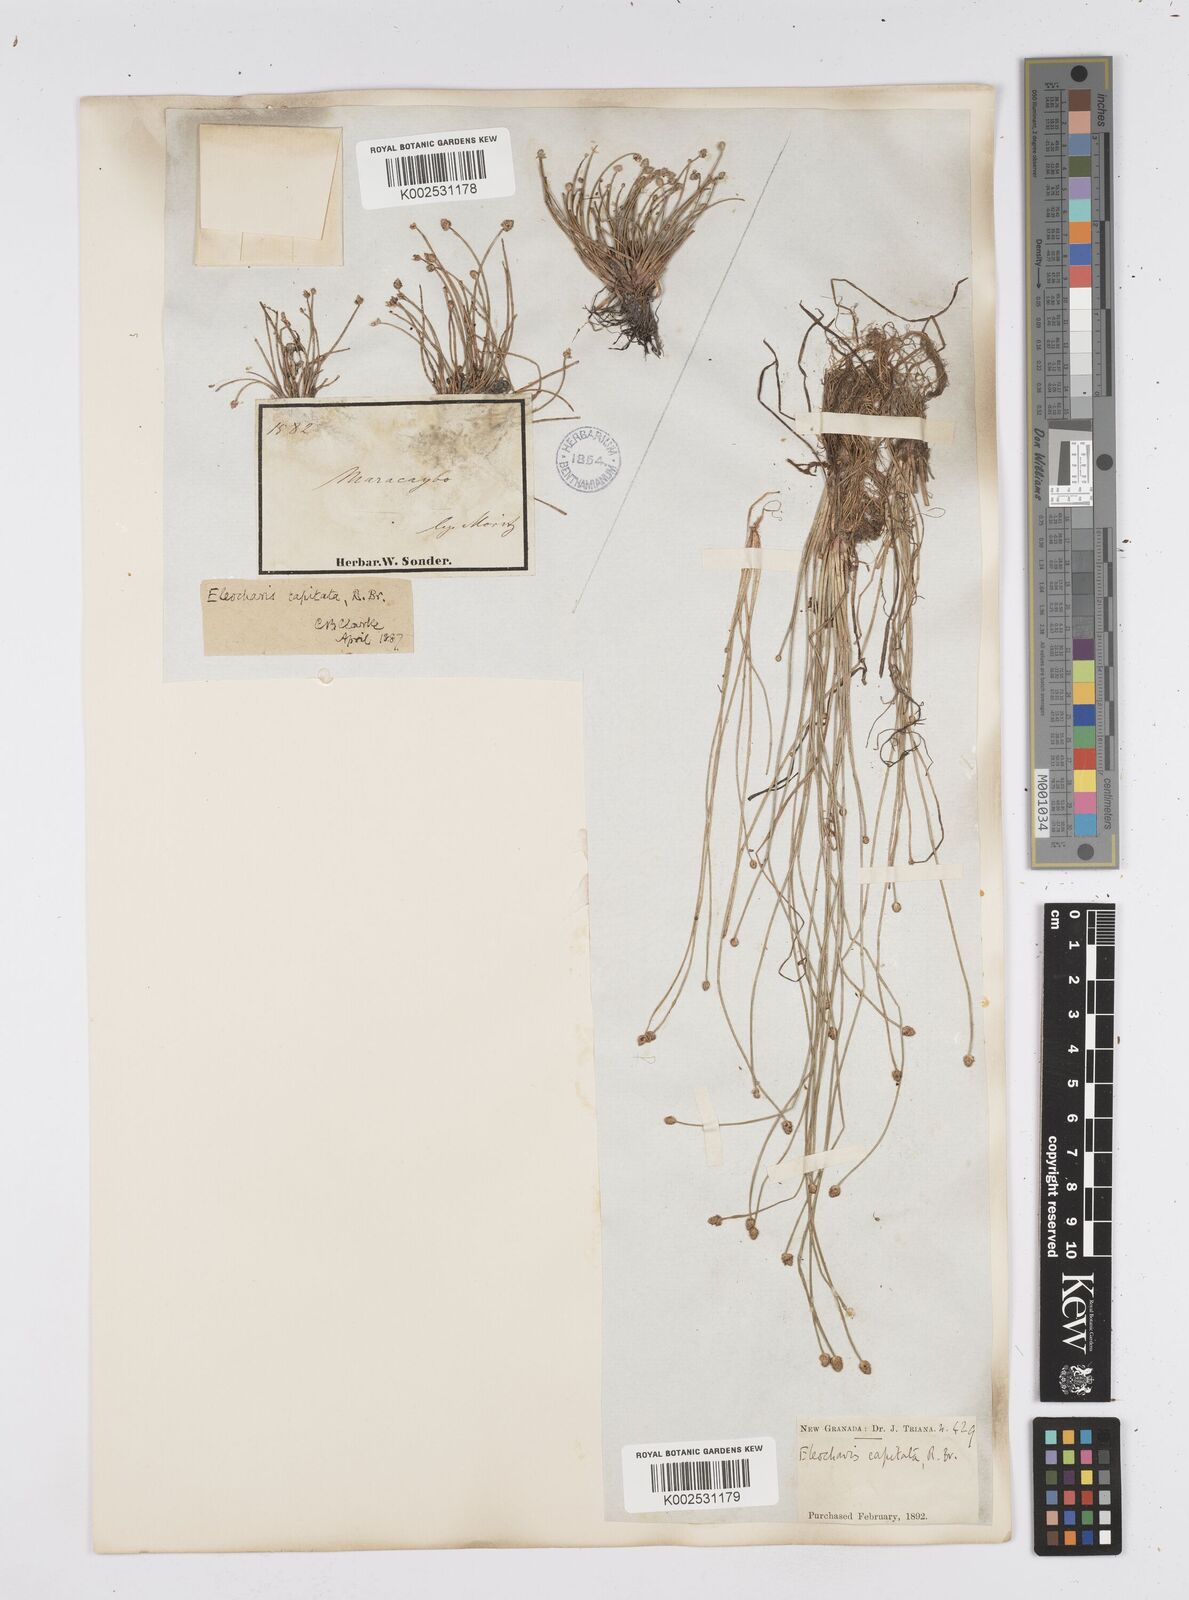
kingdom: Plantae
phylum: Tracheophyta
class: Liliopsida
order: Poales
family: Cyperaceae
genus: Eleocharis
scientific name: Eleocharis geniculata
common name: Canada spikesedge
